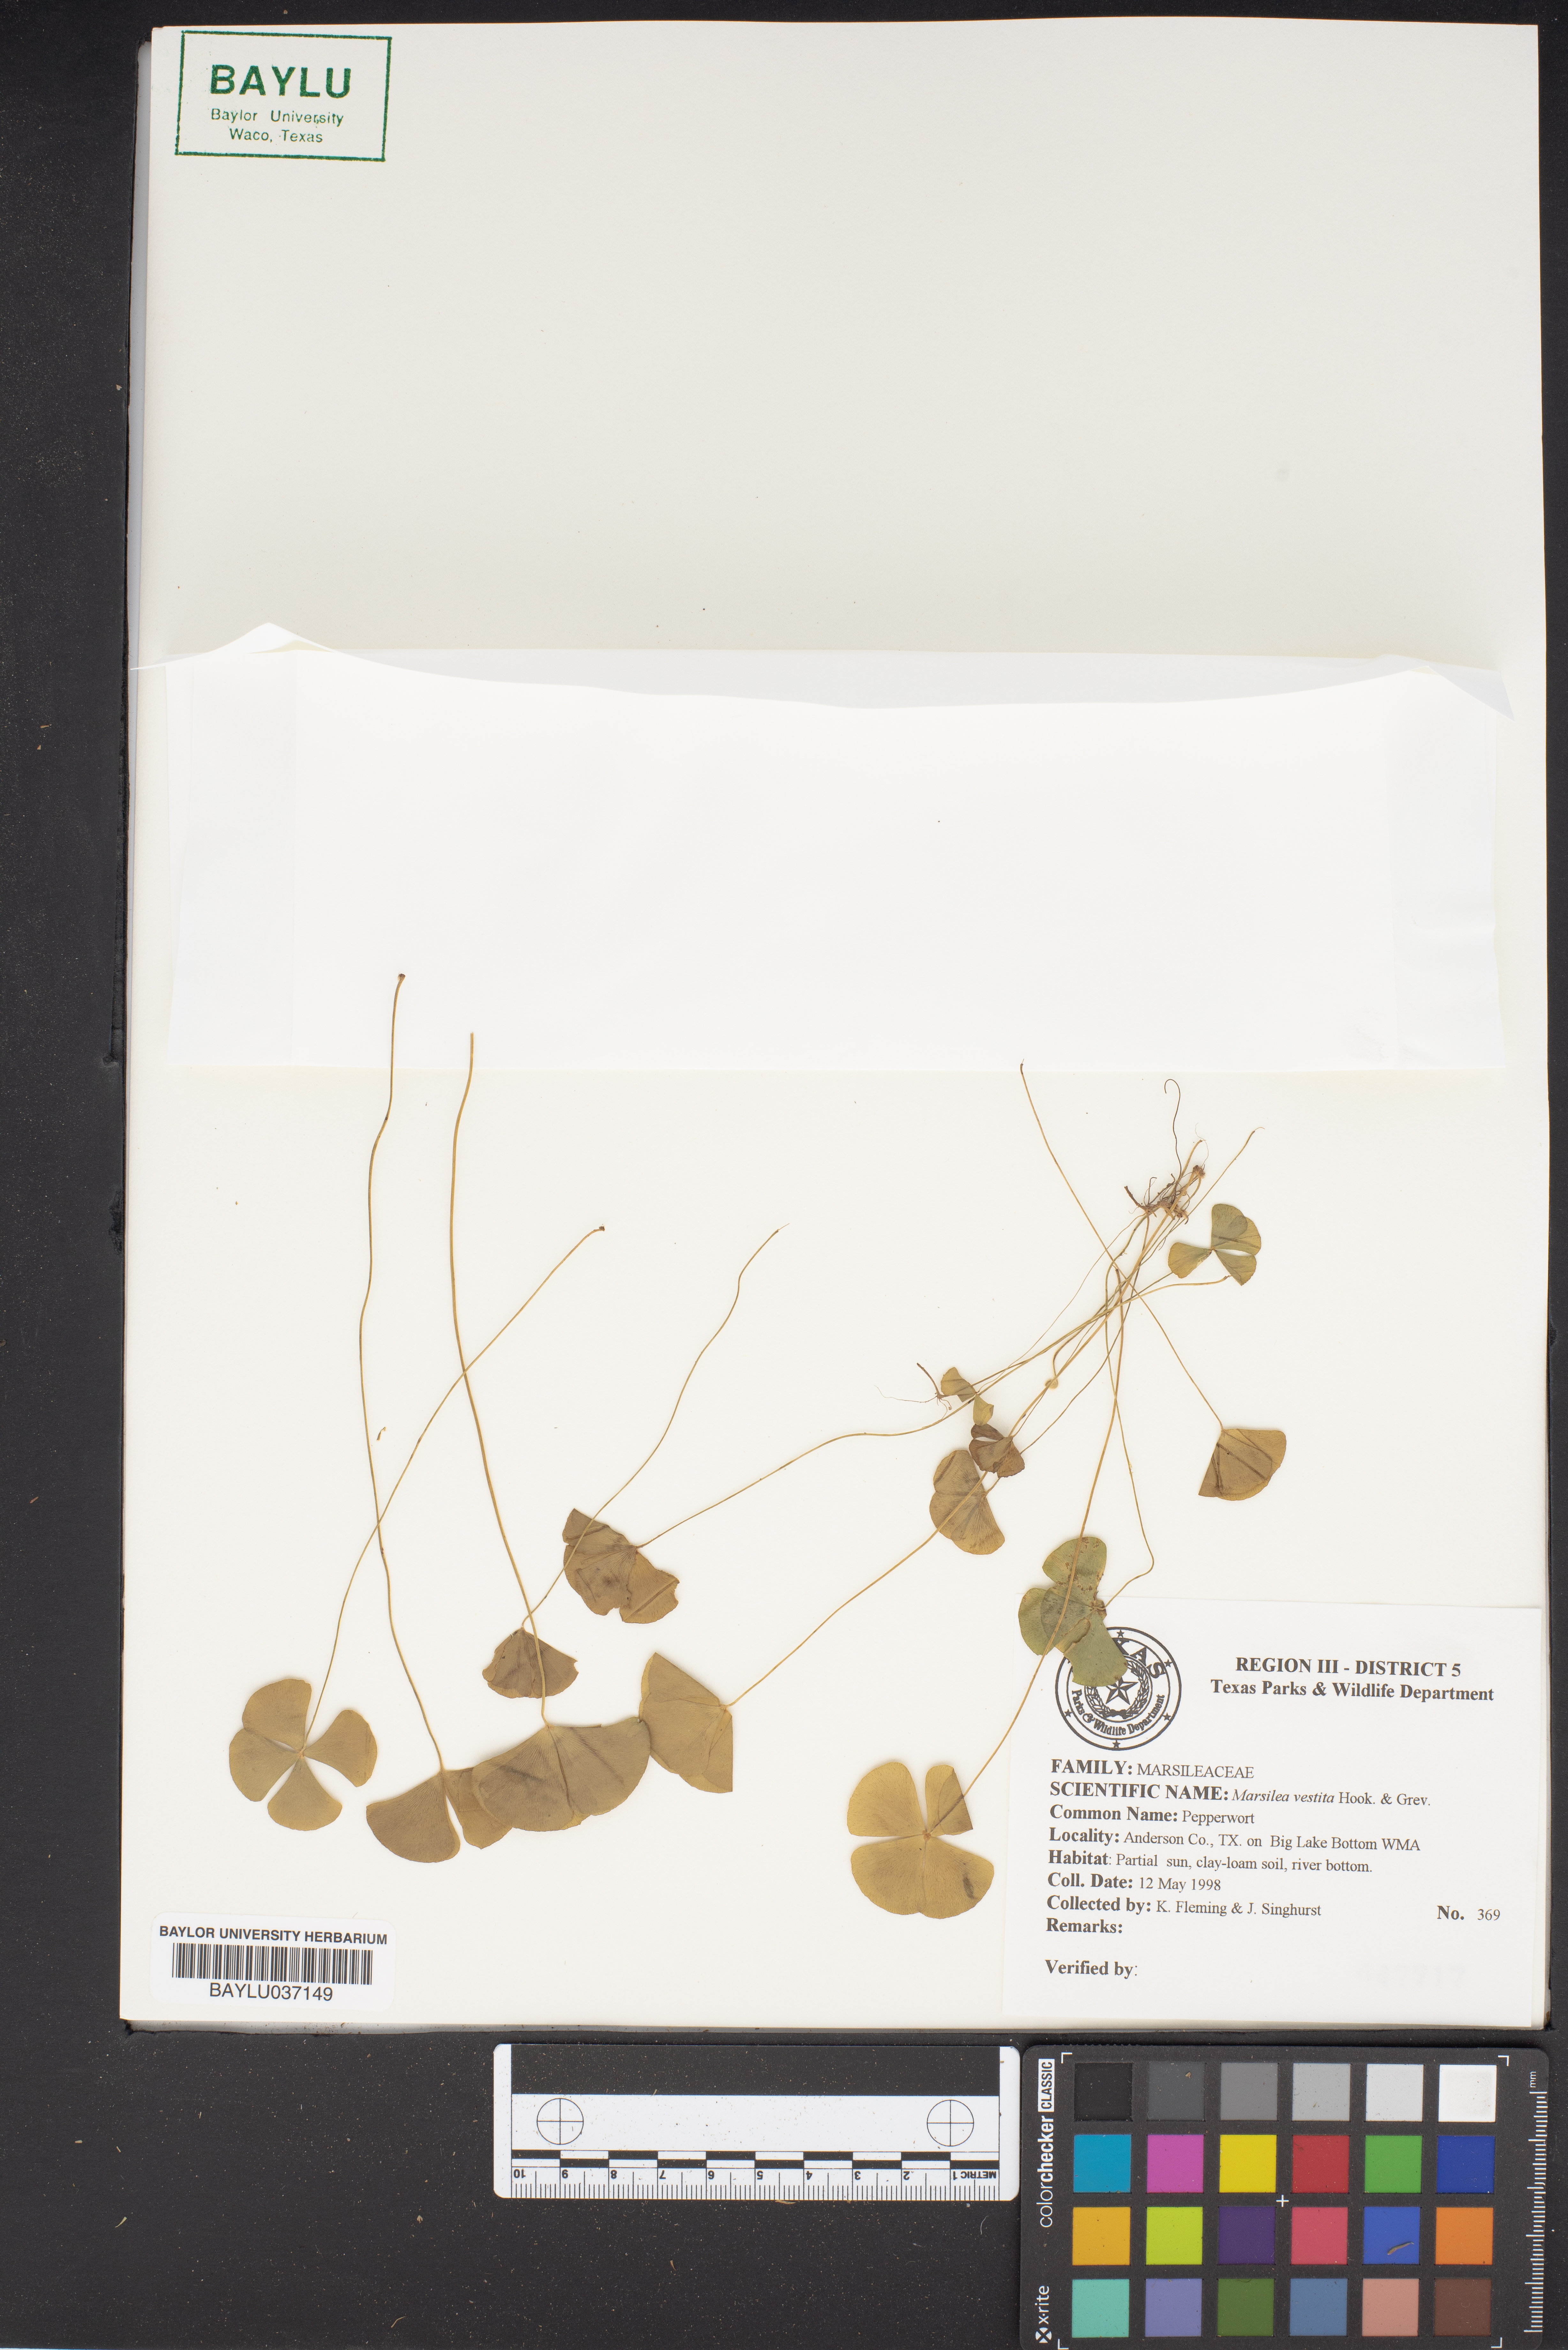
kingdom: Plantae
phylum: Tracheophyta
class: Polypodiopsida
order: Salviniales
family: Marsileaceae
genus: Marsilea
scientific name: Marsilea vestita
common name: Hooked-pepperwort
